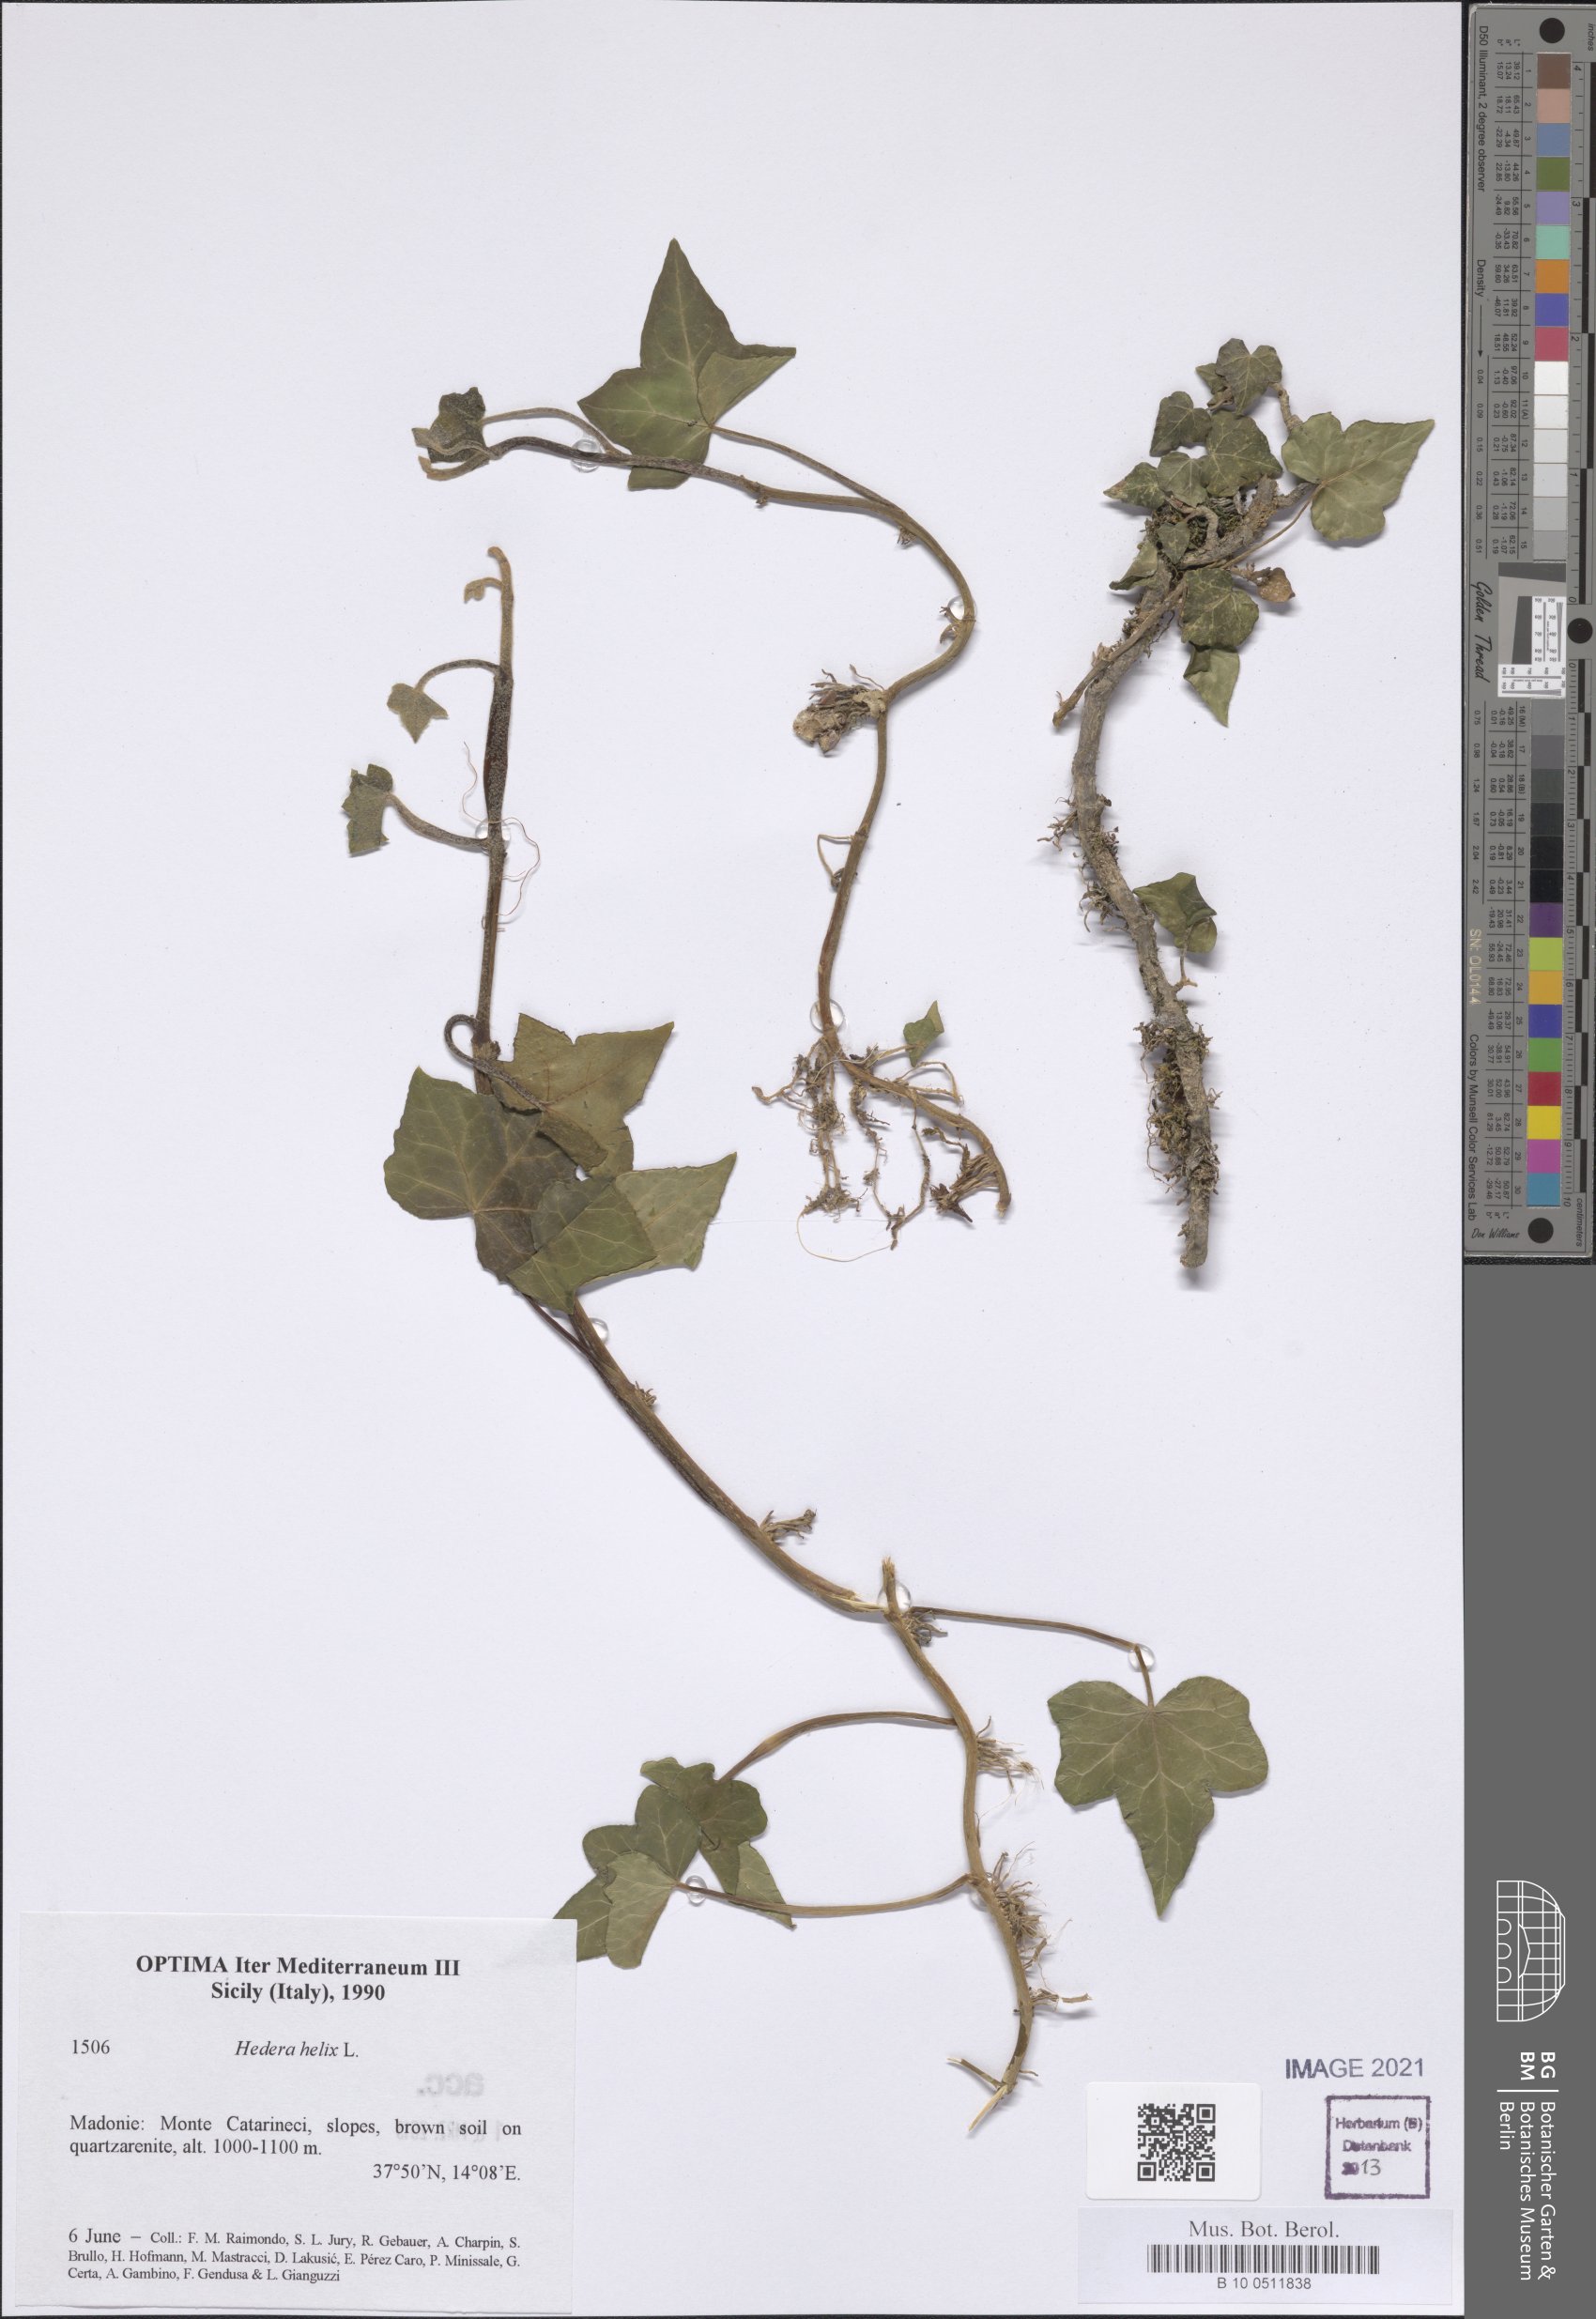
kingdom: Plantae
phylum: Tracheophyta
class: Magnoliopsida
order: Apiales
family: Araliaceae
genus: Hedera
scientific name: Hedera helix
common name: Ivy
